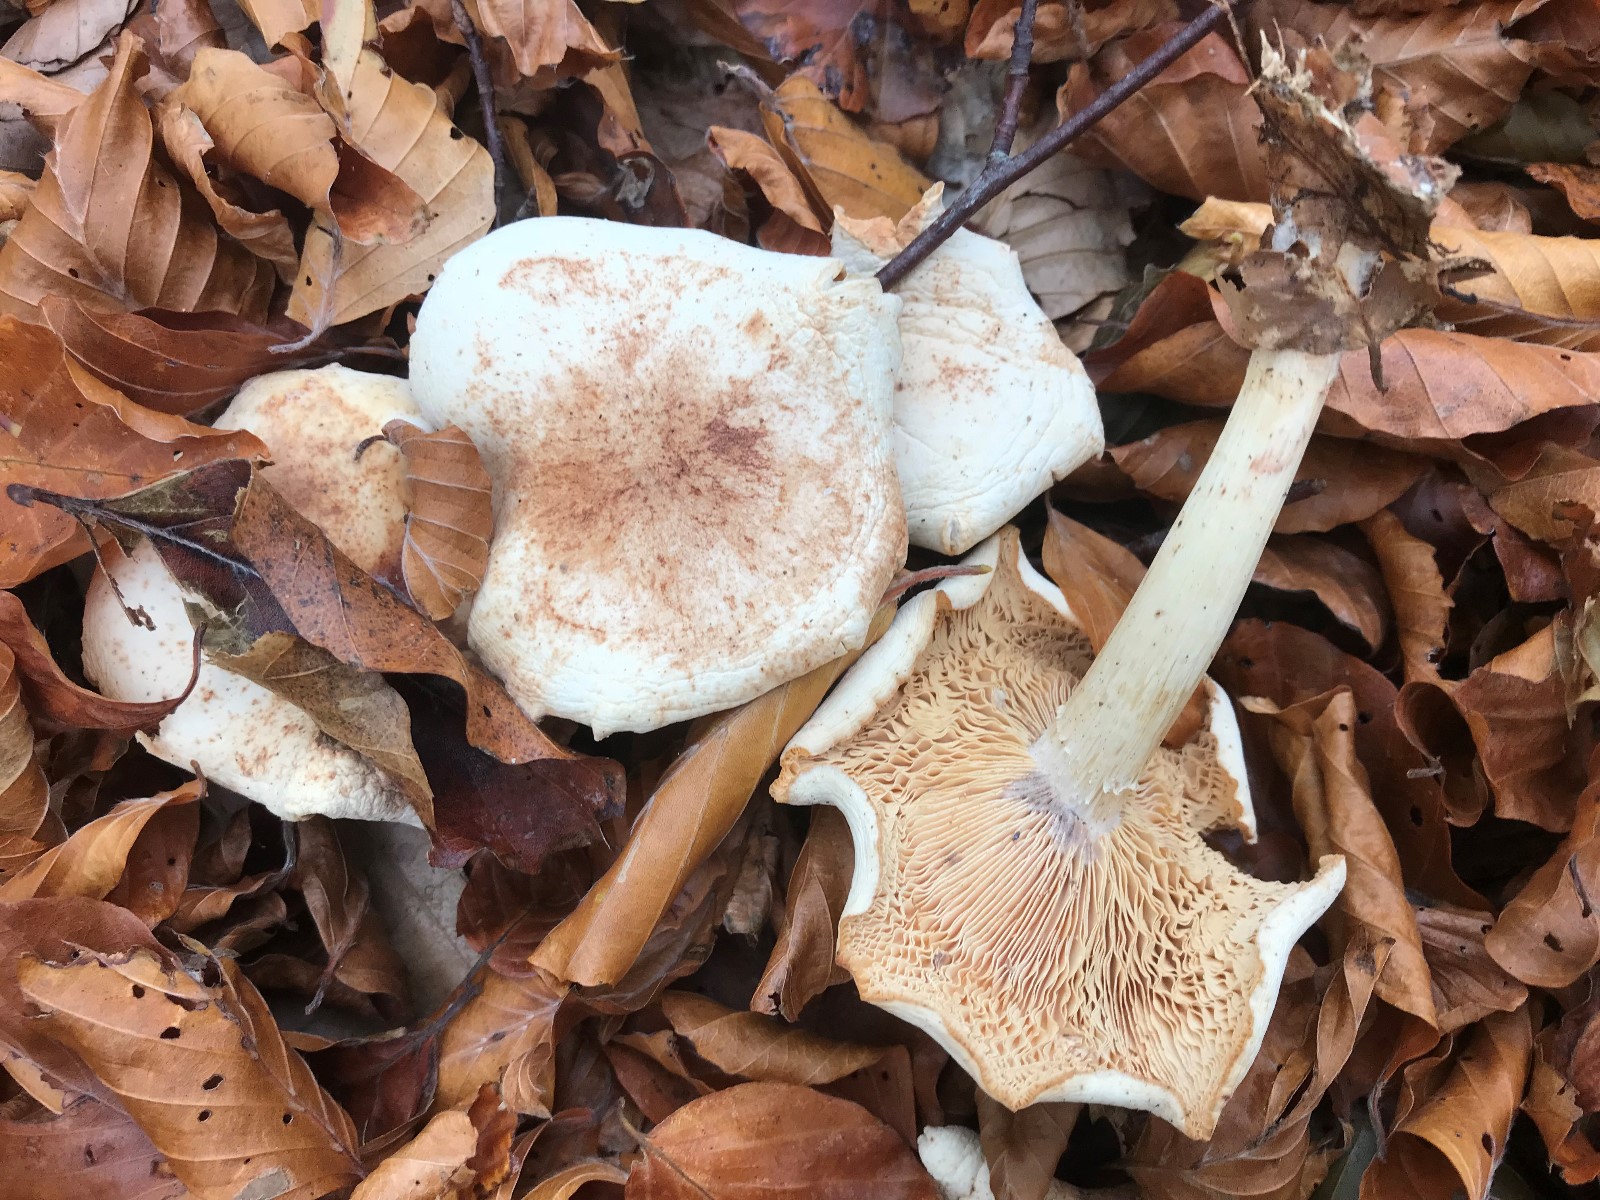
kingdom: Fungi
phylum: Basidiomycota
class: Agaricomycetes
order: Agaricales
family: Omphalotaceae
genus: Rhodocollybia
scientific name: Rhodocollybia maculata
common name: plettet fladhat
